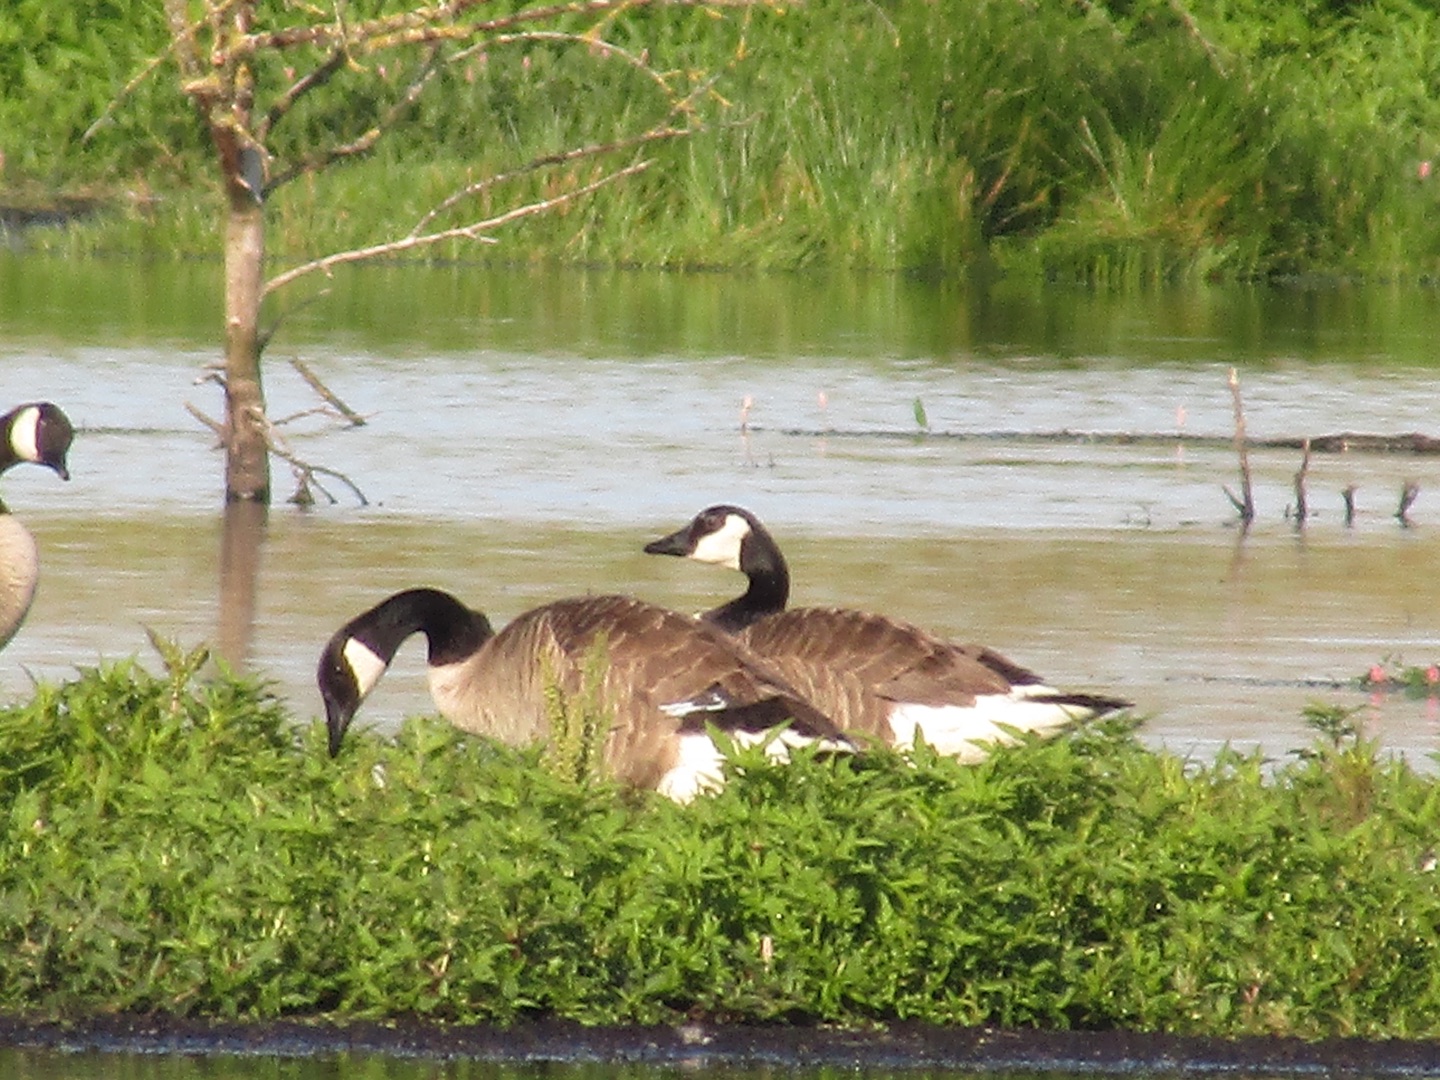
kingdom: Animalia
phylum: Chordata
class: Aves
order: Anseriformes
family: Anatidae
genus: Branta
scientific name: Branta canadensis
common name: Canadagås
